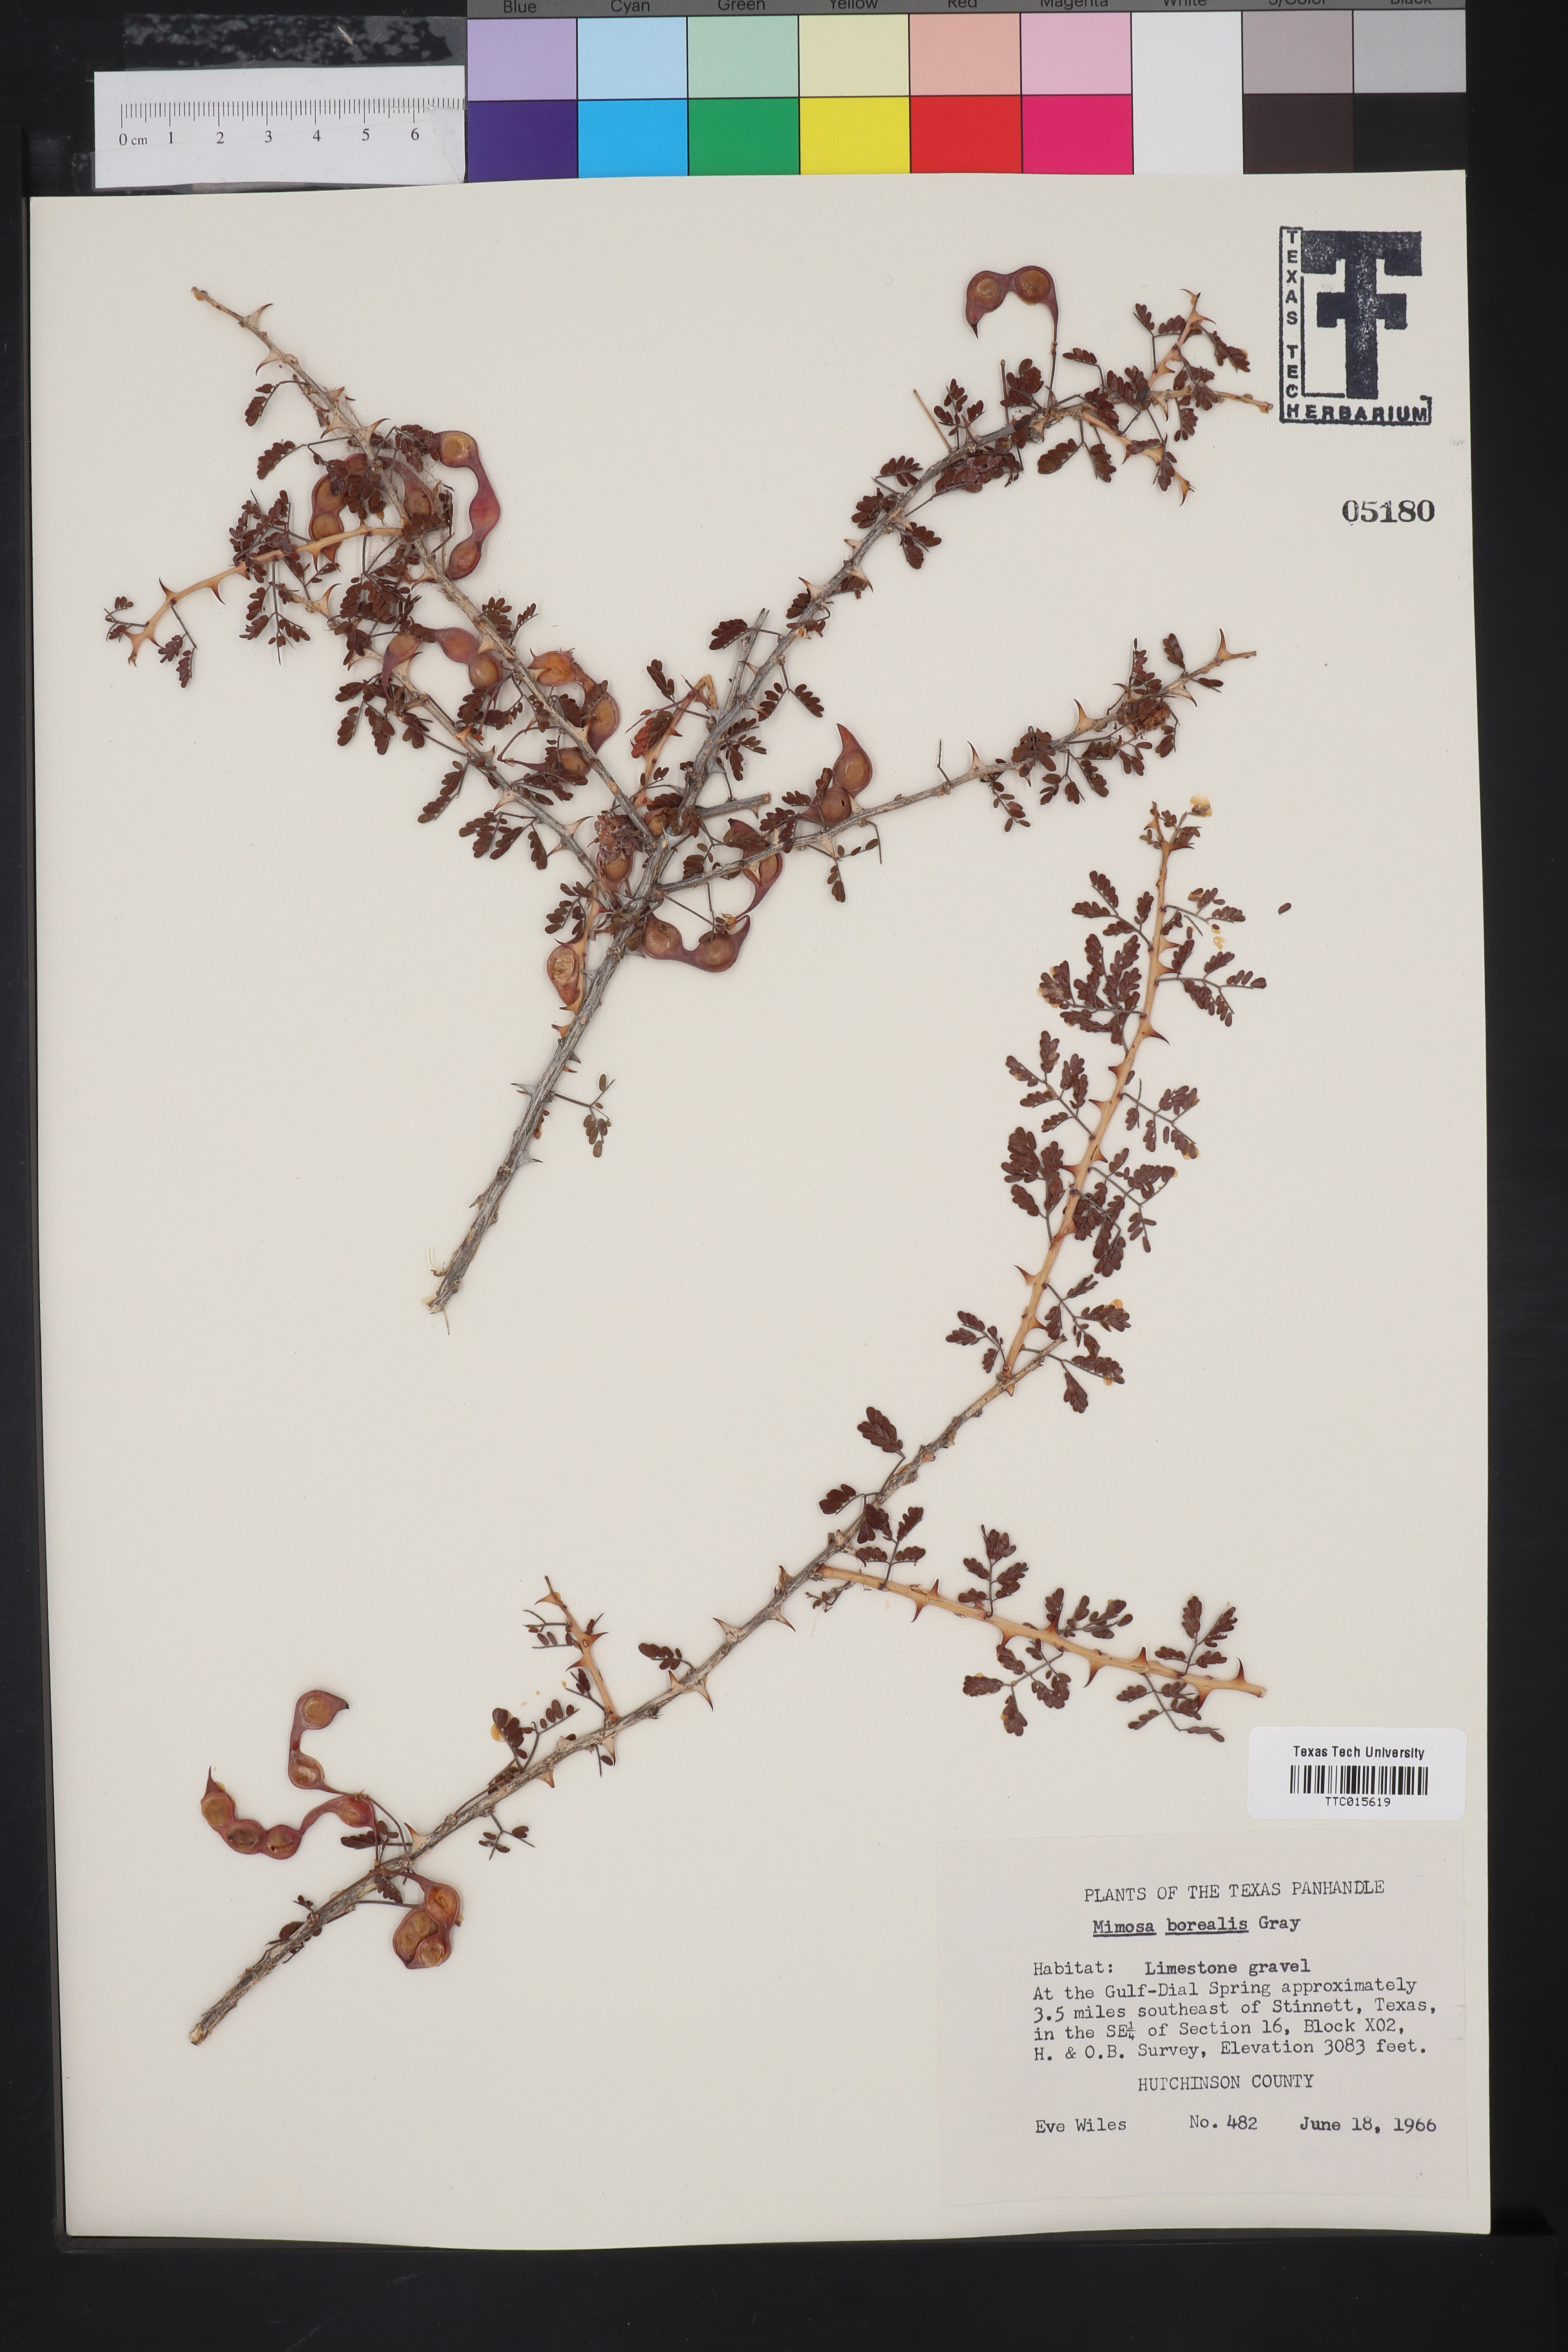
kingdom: Plantae
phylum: Tracheophyta
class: Magnoliopsida
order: Fabales
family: Fabaceae
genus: Mimosa
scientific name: Mimosa borealis
